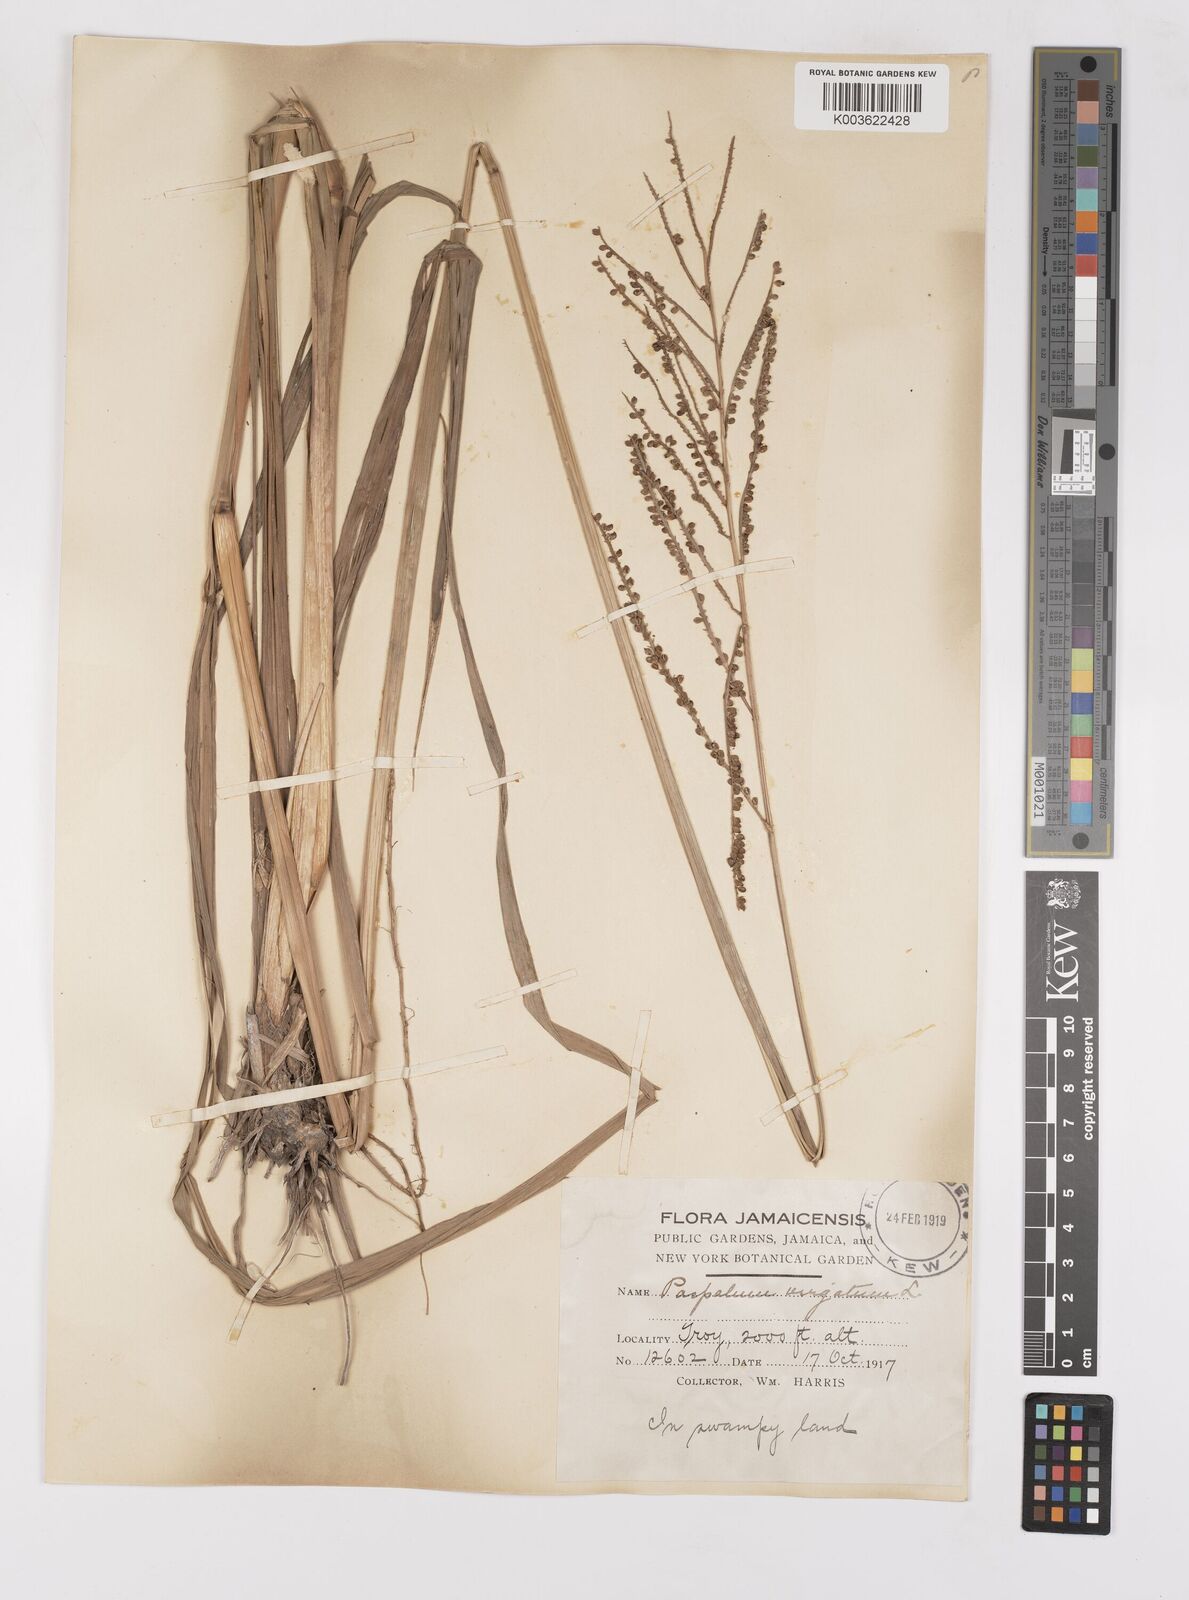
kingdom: Plantae
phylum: Tracheophyta
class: Liliopsida
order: Poales
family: Poaceae
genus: Paspalum
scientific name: Paspalum virgatum
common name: Talquezal
